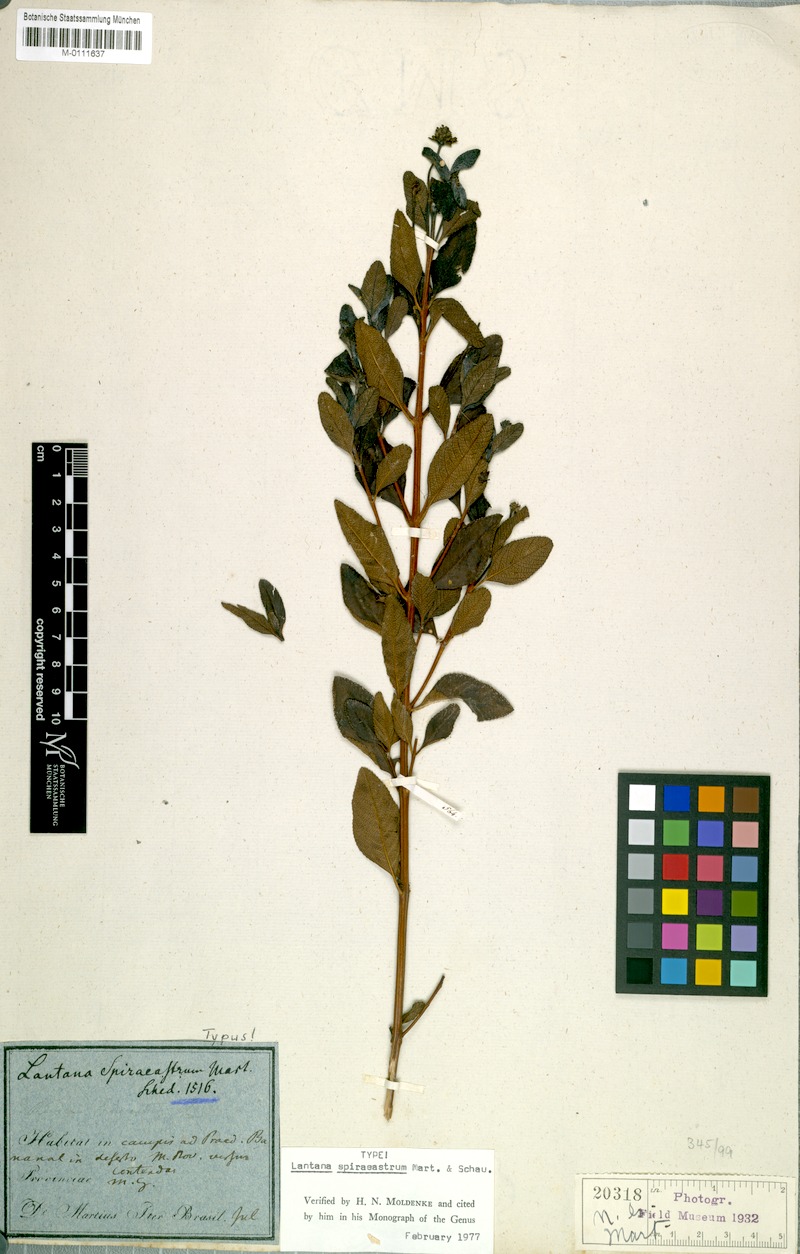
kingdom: Plantae
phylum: Tracheophyta
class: Magnoliopsida
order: Lamiales
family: Verbenaceae
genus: Lippia
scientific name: Lippia spiraeastrum
